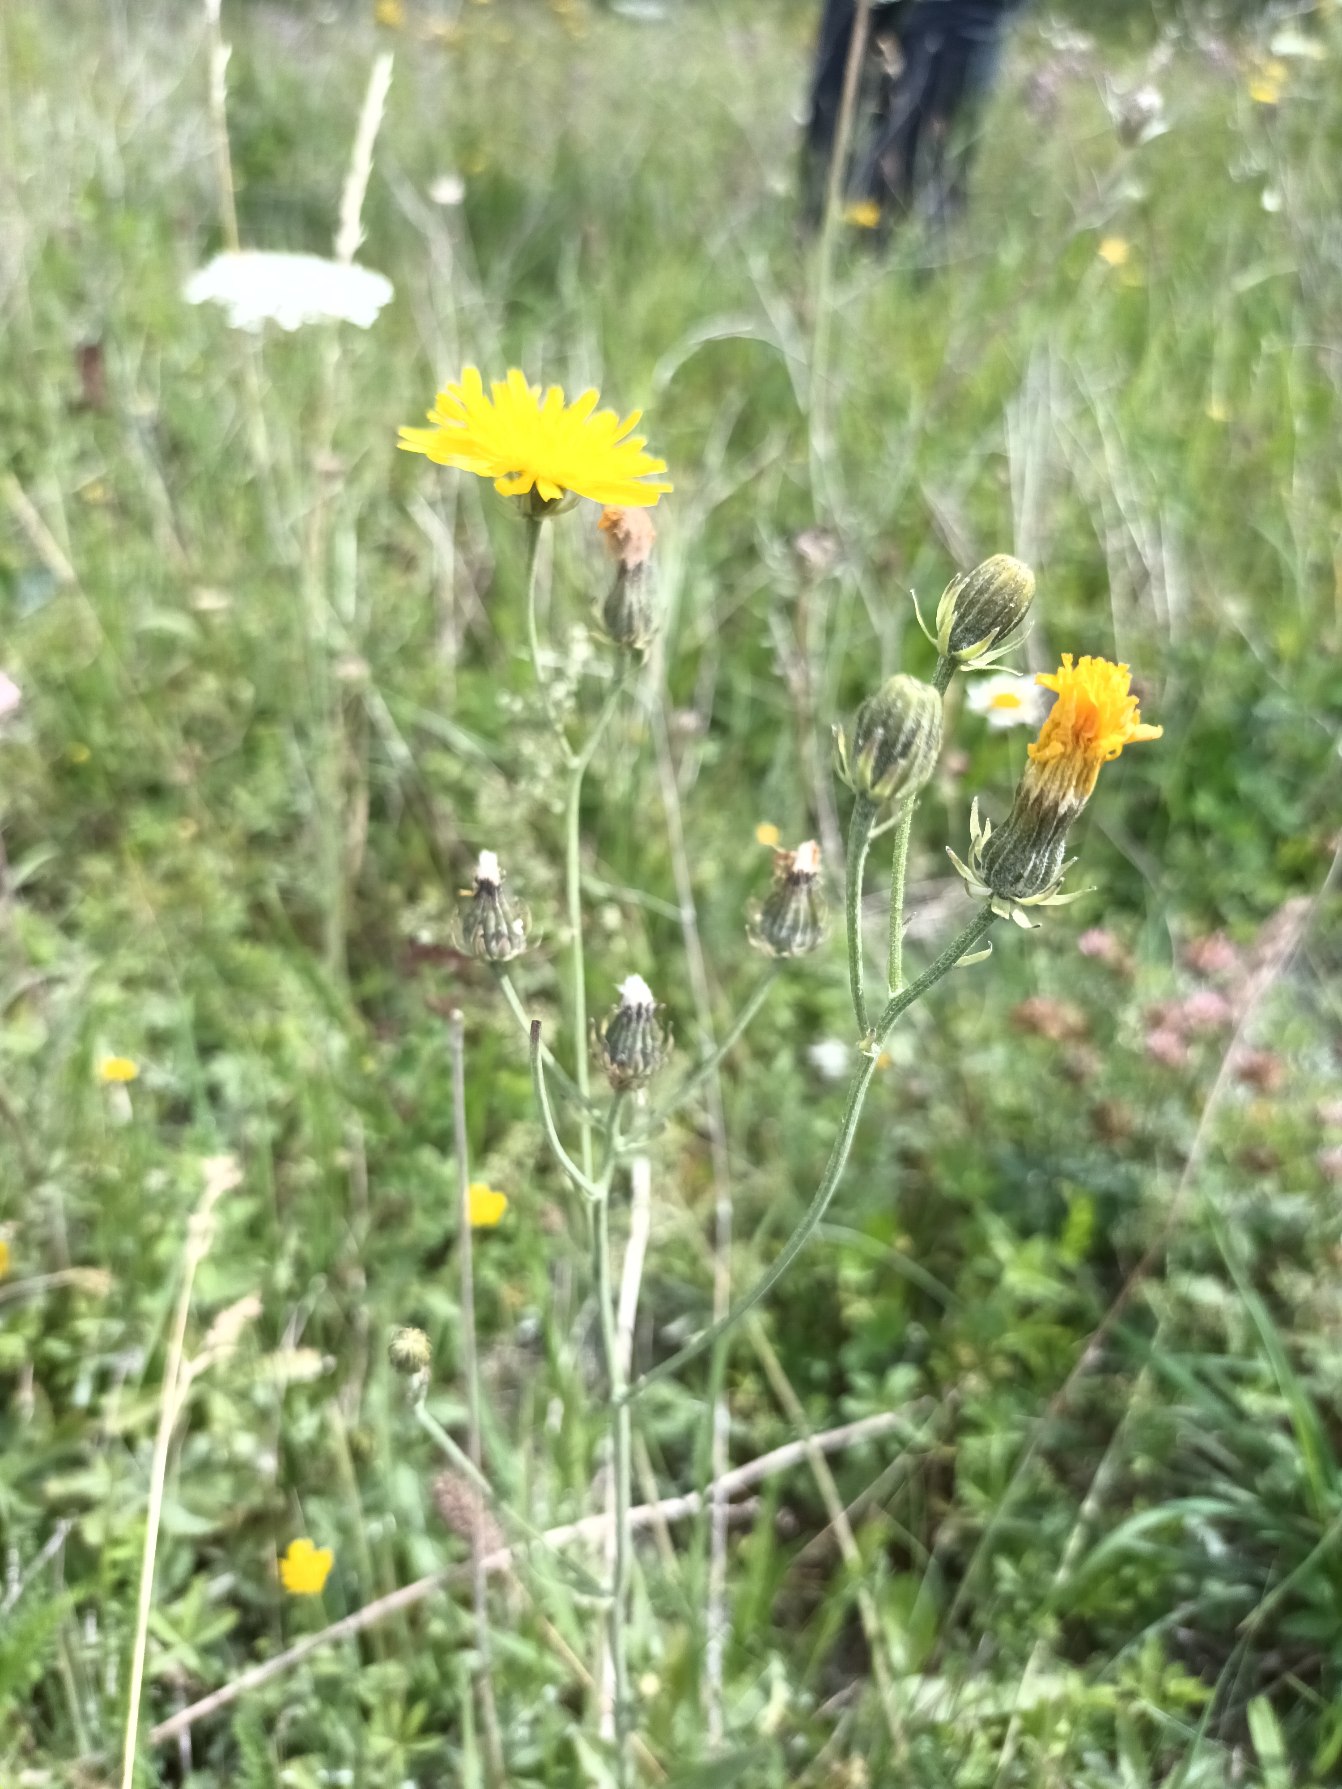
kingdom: Plantae
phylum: Tracheophyta
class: Magnoliopsida
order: Asterales
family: Asteraceae
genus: Picris
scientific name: Picris hieracioides
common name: Ru bittermælk
